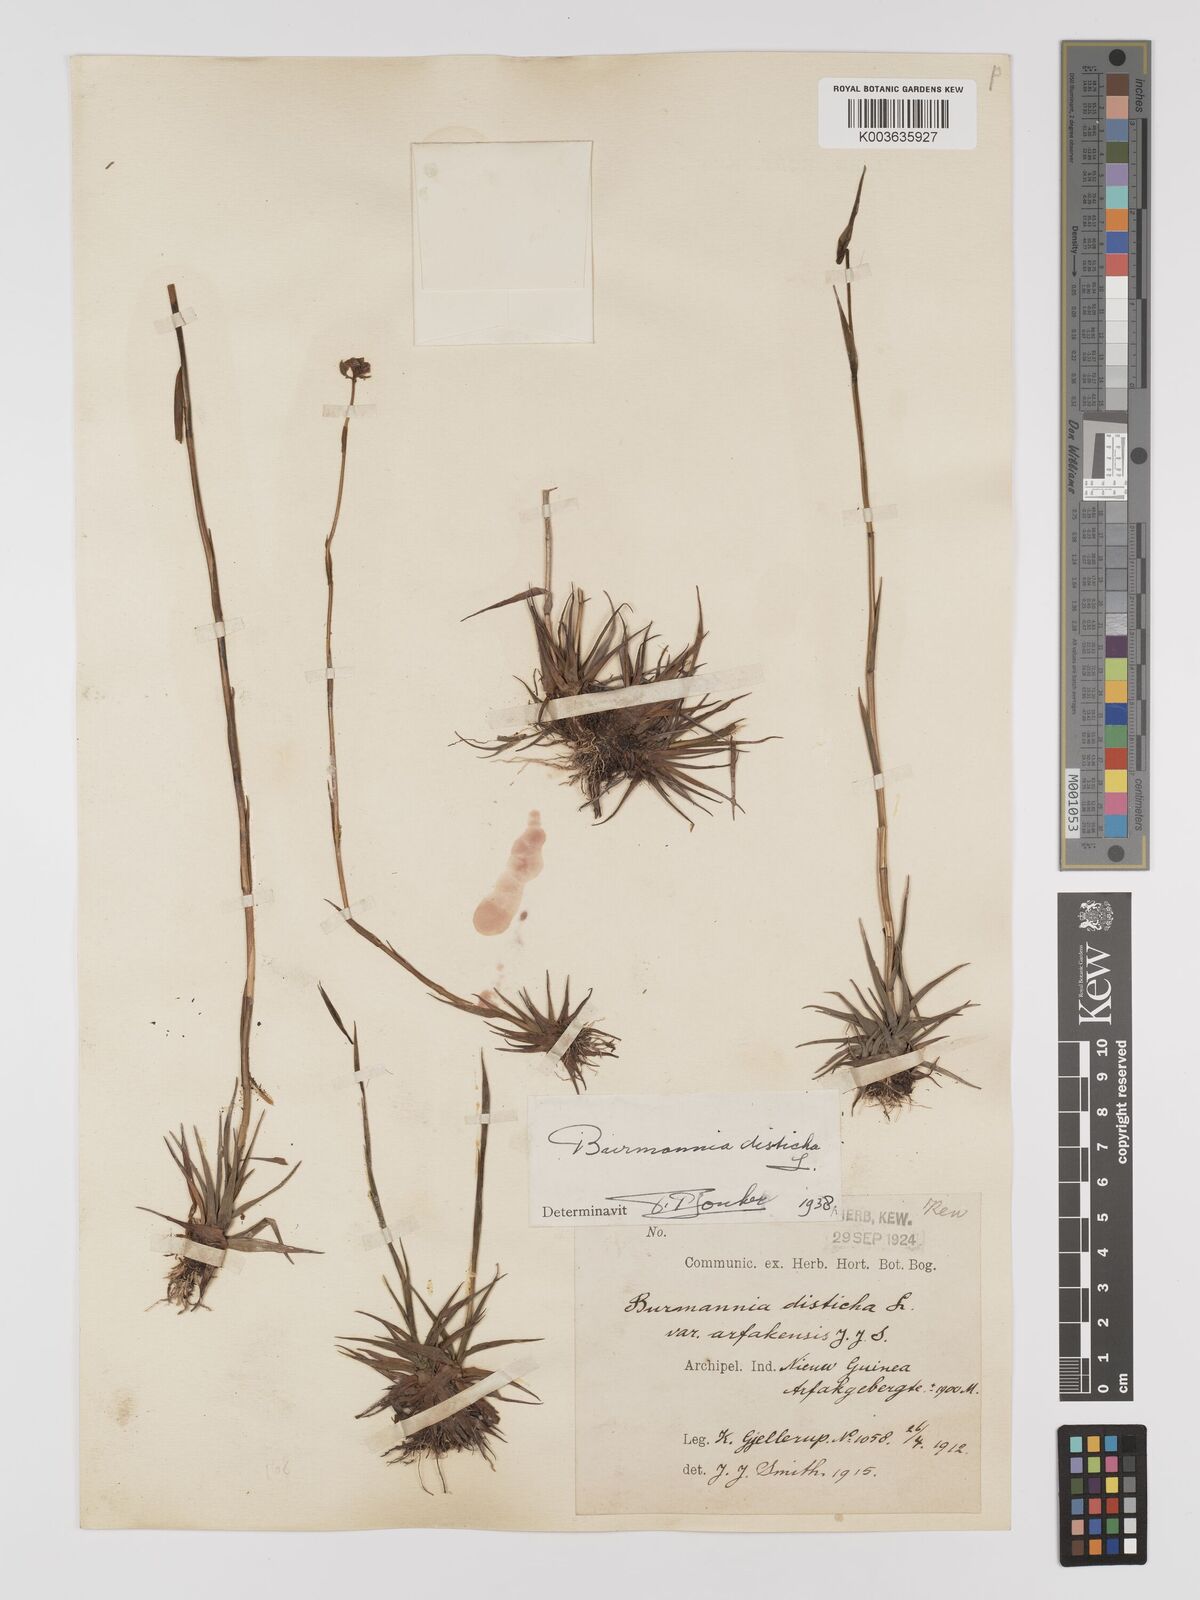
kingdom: Plantae
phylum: Tracheophyta
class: Liliopsida
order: Dioscoreales
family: Burmanniaceae
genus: Burmannia
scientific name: Burmannia disticha
